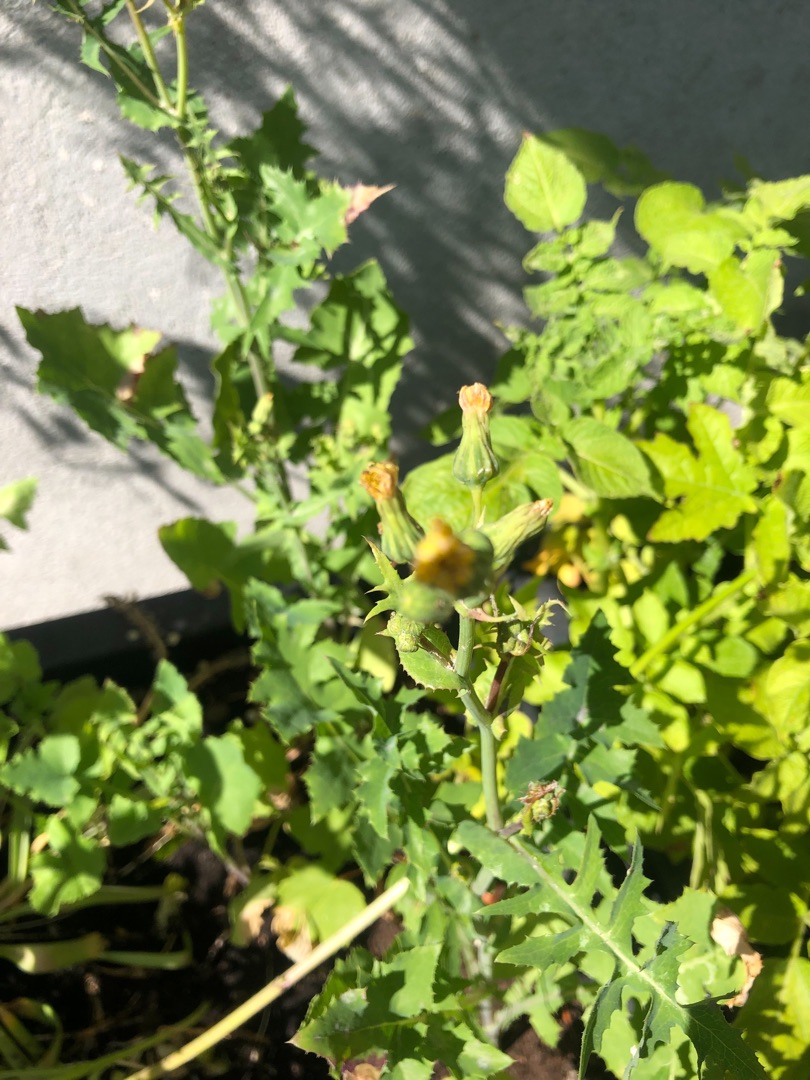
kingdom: Plantae
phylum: Tracheophyta
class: Magnoliopsida
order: Asterales
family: Asteraceae
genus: Sonchus
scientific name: Sonchus oleraceus
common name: Almindelig svinemælk
